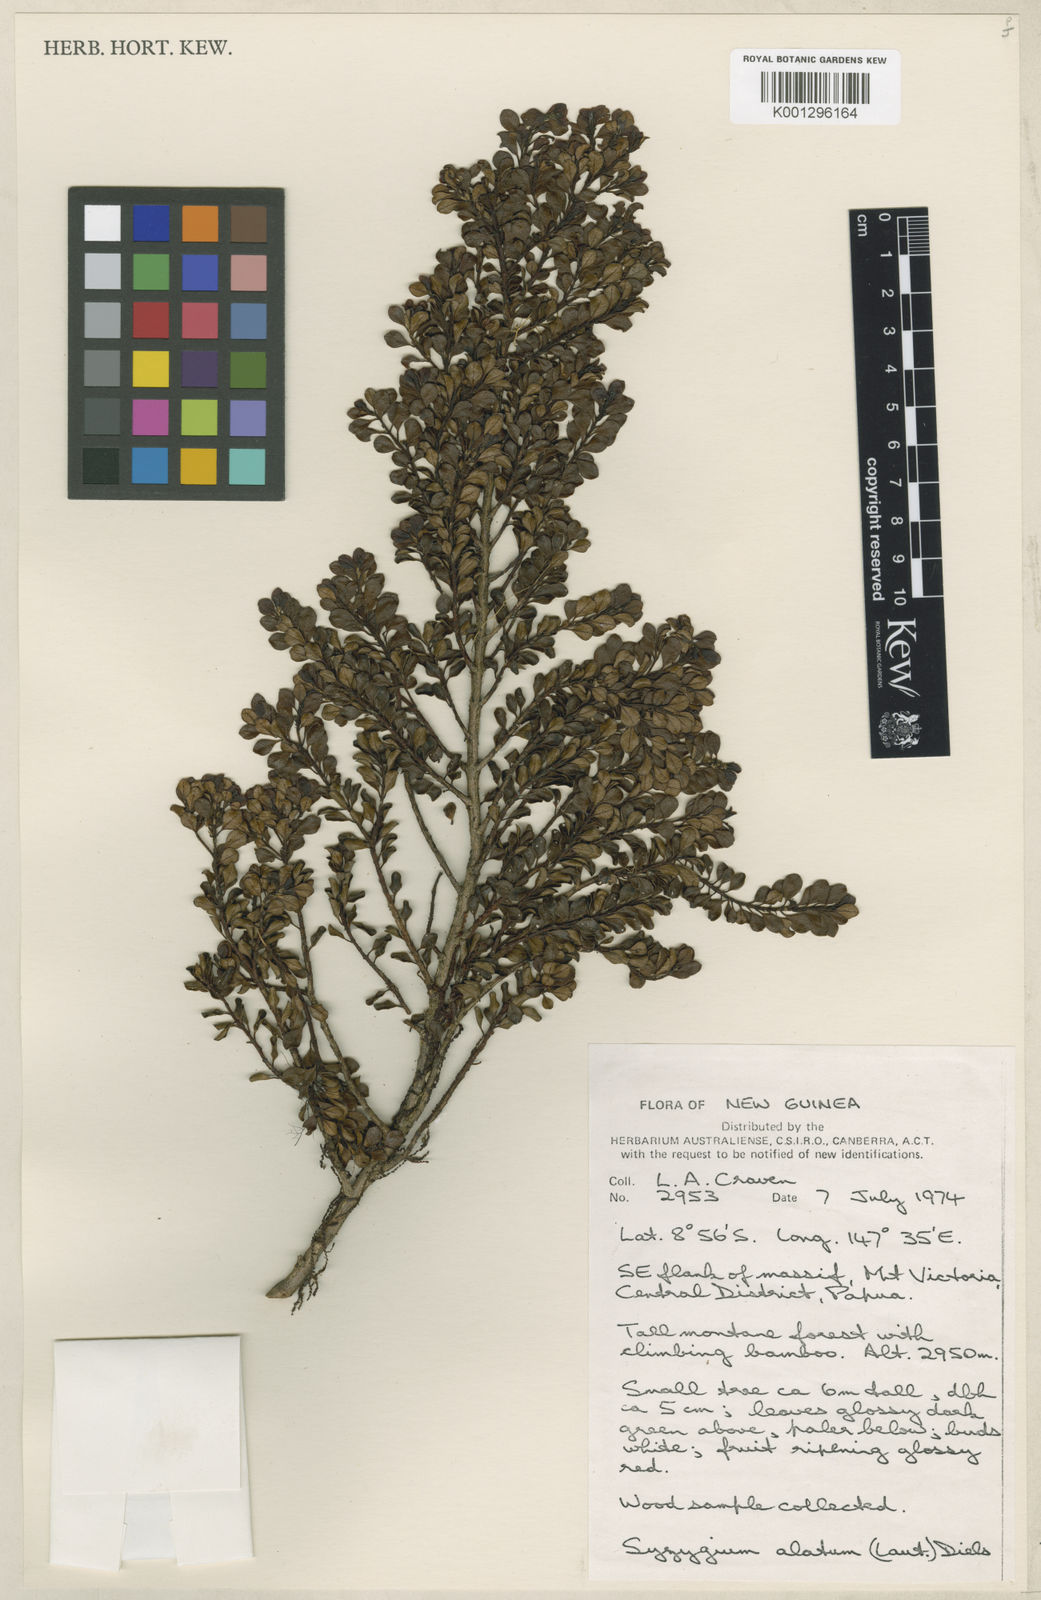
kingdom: Plantae
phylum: Tracheophyta
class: Magnoliopsida
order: Myrtales
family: Myrtaceae
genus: Syzygium
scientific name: Syzygium alatum
